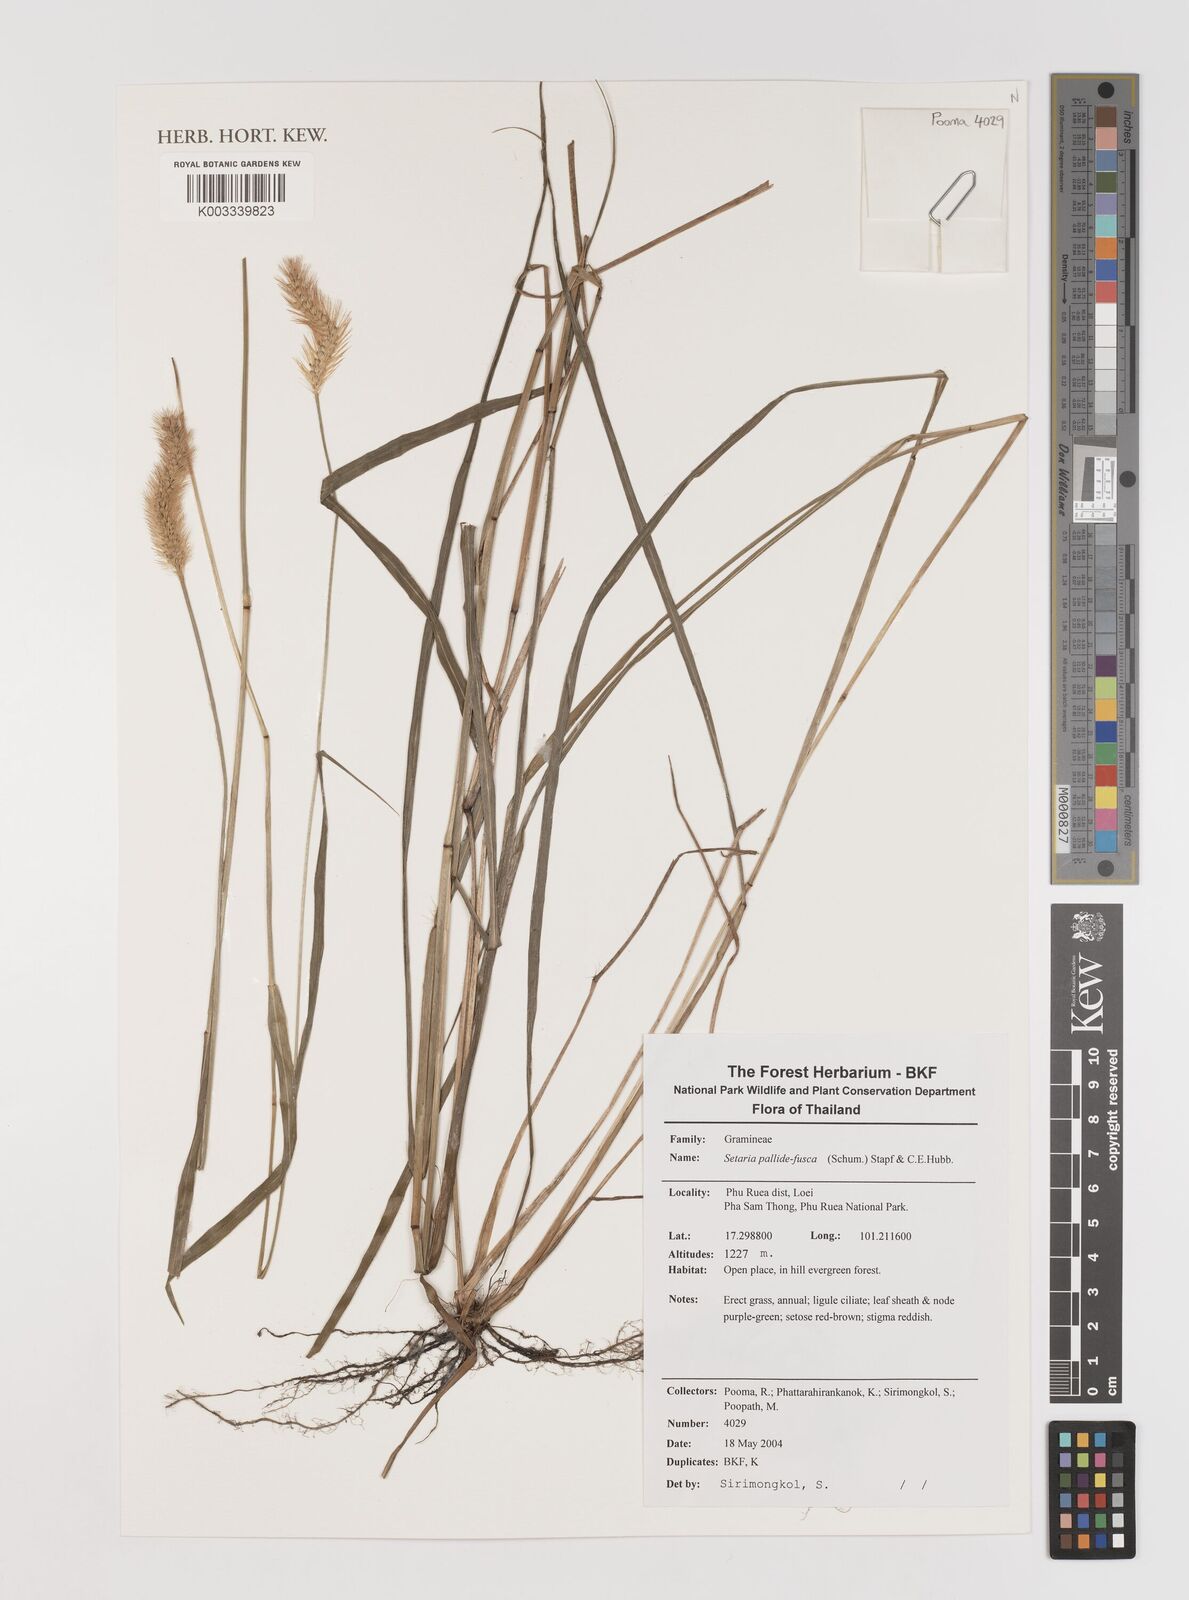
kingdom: Plantae
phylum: Tracheophyta
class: Liliopsida
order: Poales
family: Poaceae
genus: Setaria
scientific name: Setaria pumila
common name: Yellow bristle-grass
